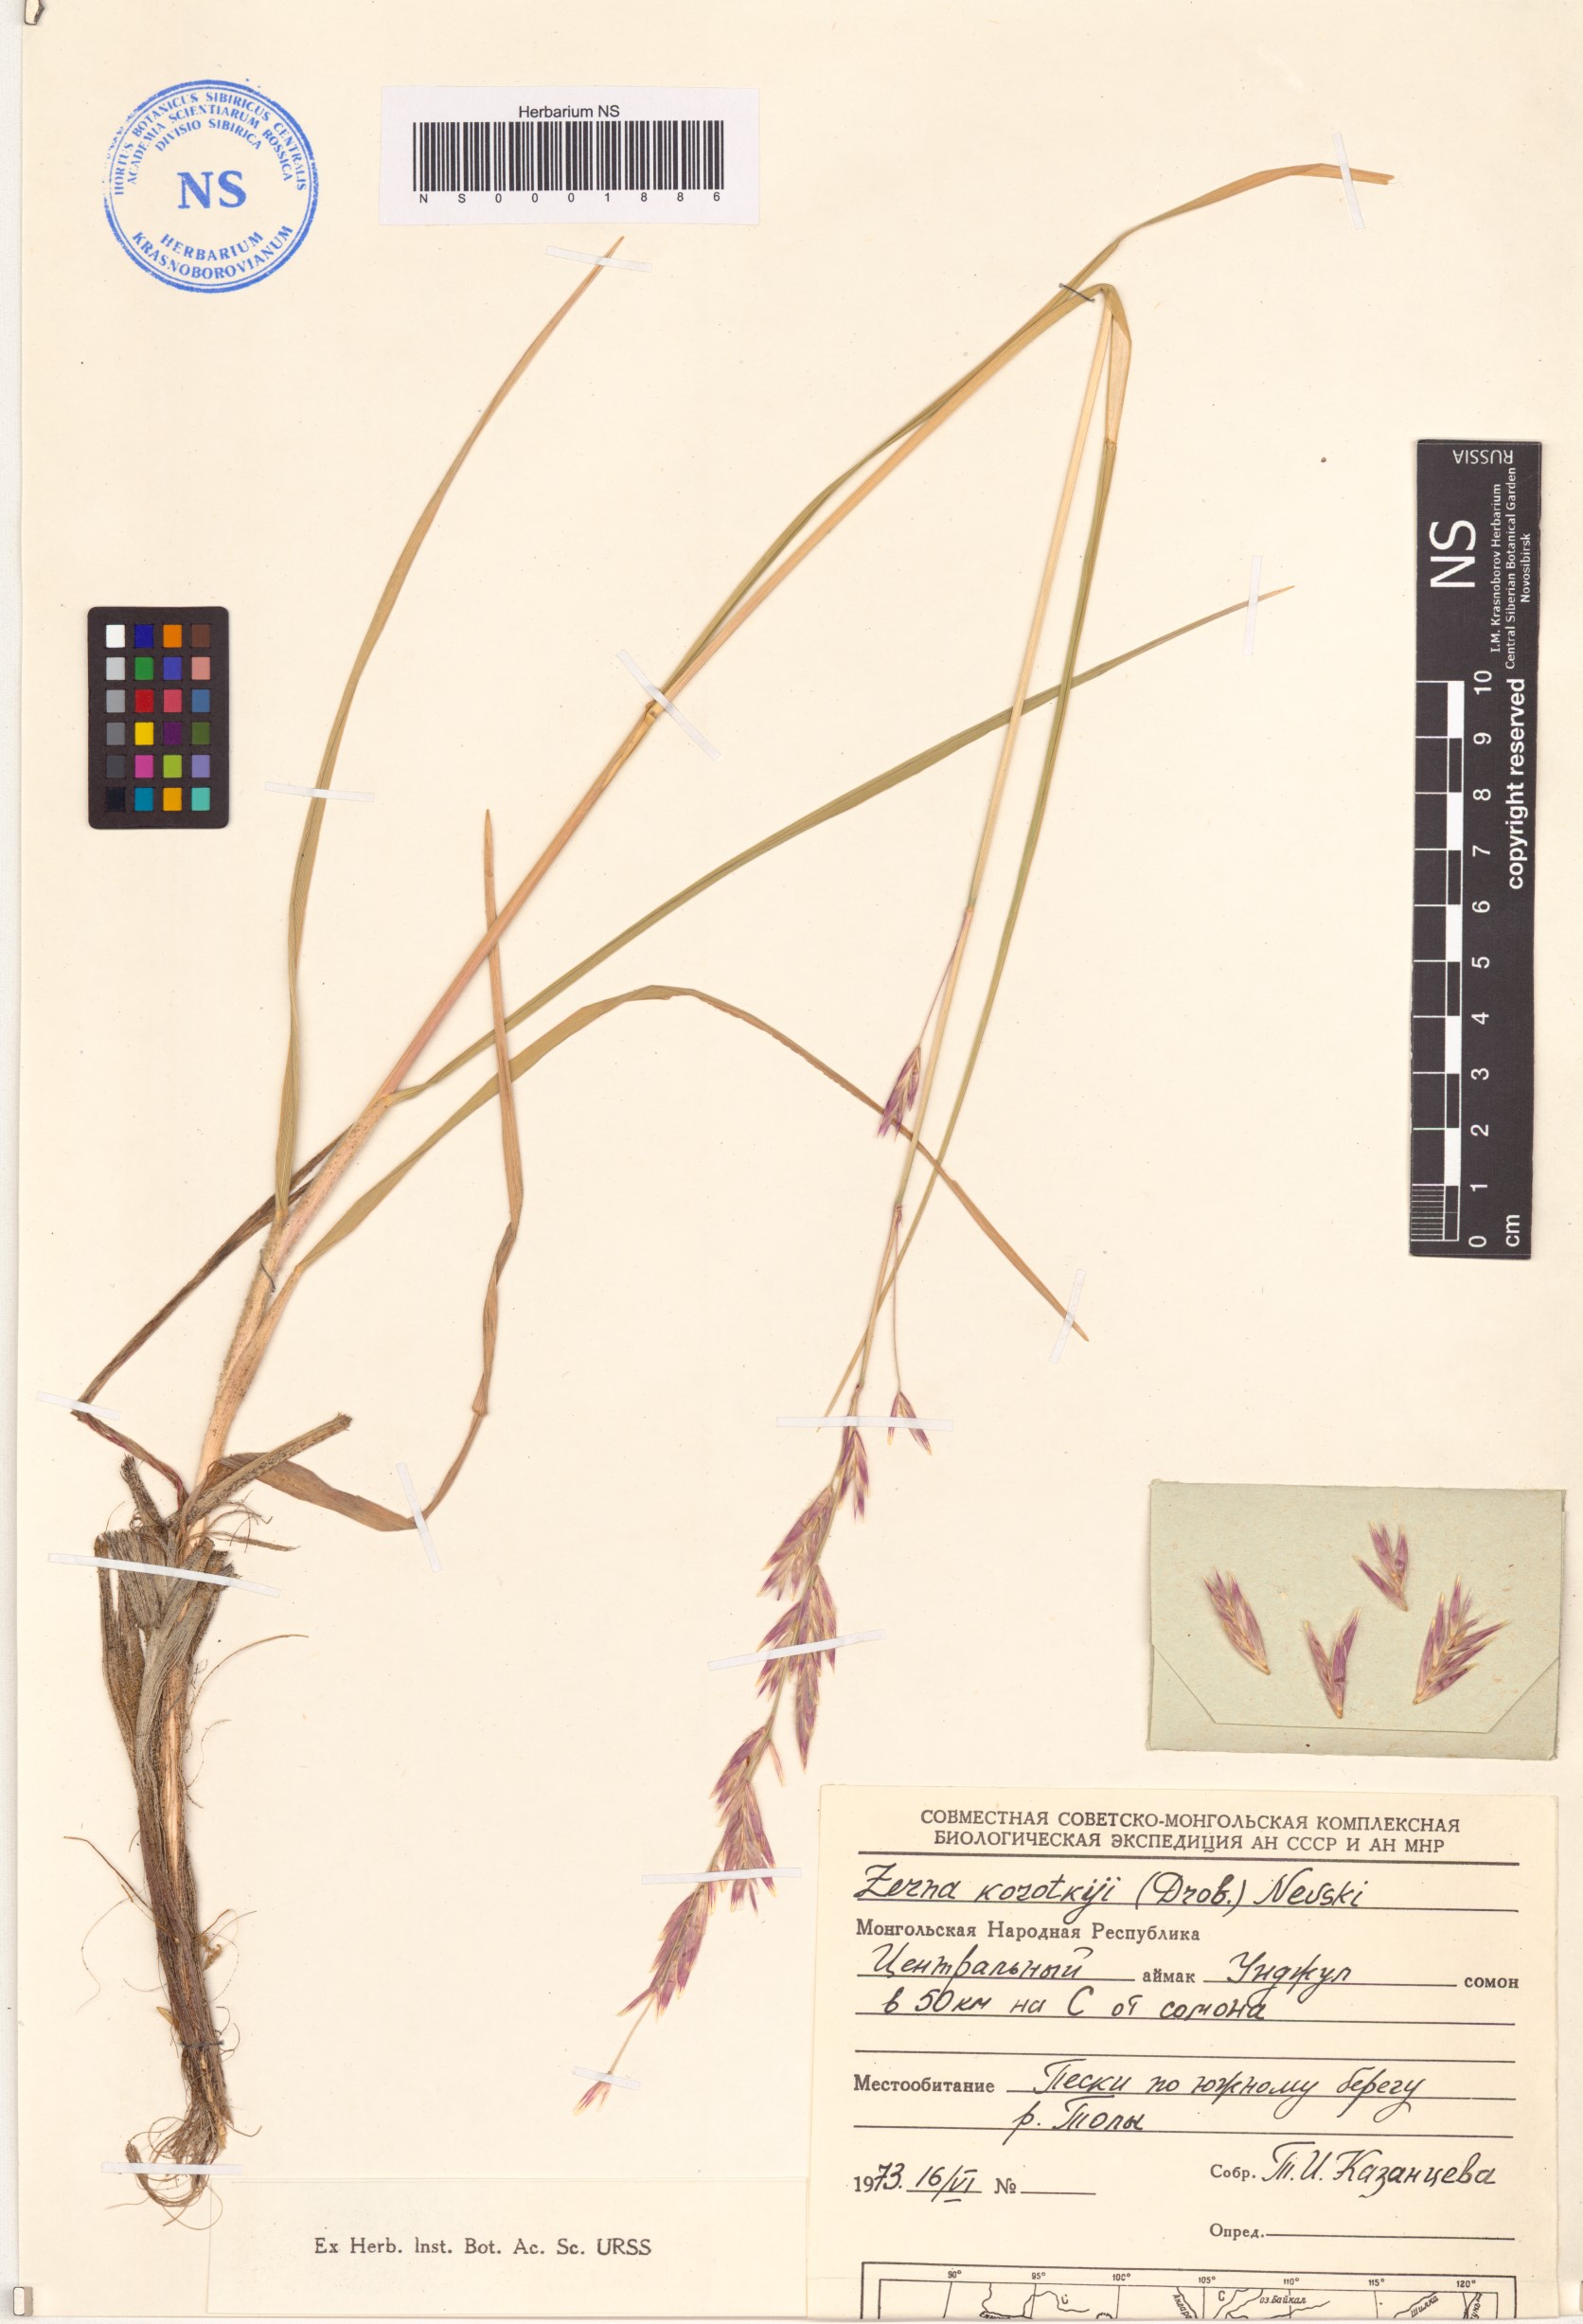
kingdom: Plantae
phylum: Tracheophyta
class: Liliopsida
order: Poales
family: Poaceae
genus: Bromus
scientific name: Bromus pumpellianus
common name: Pumpelly's brome
